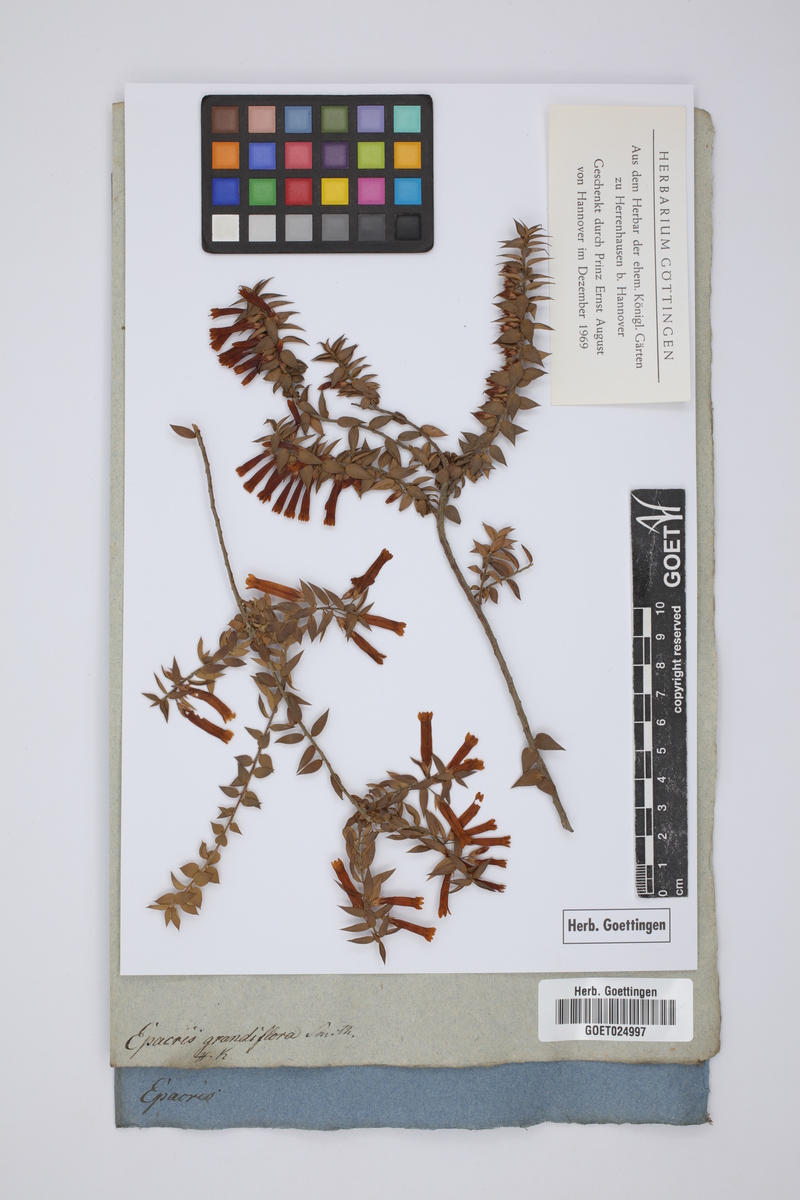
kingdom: Plantae
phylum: Tracheophyta
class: Magnoliopsida
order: Ericales
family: Ericaceae
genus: Epacris
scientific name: Epacris longiflora
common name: Fuchsia-heath
